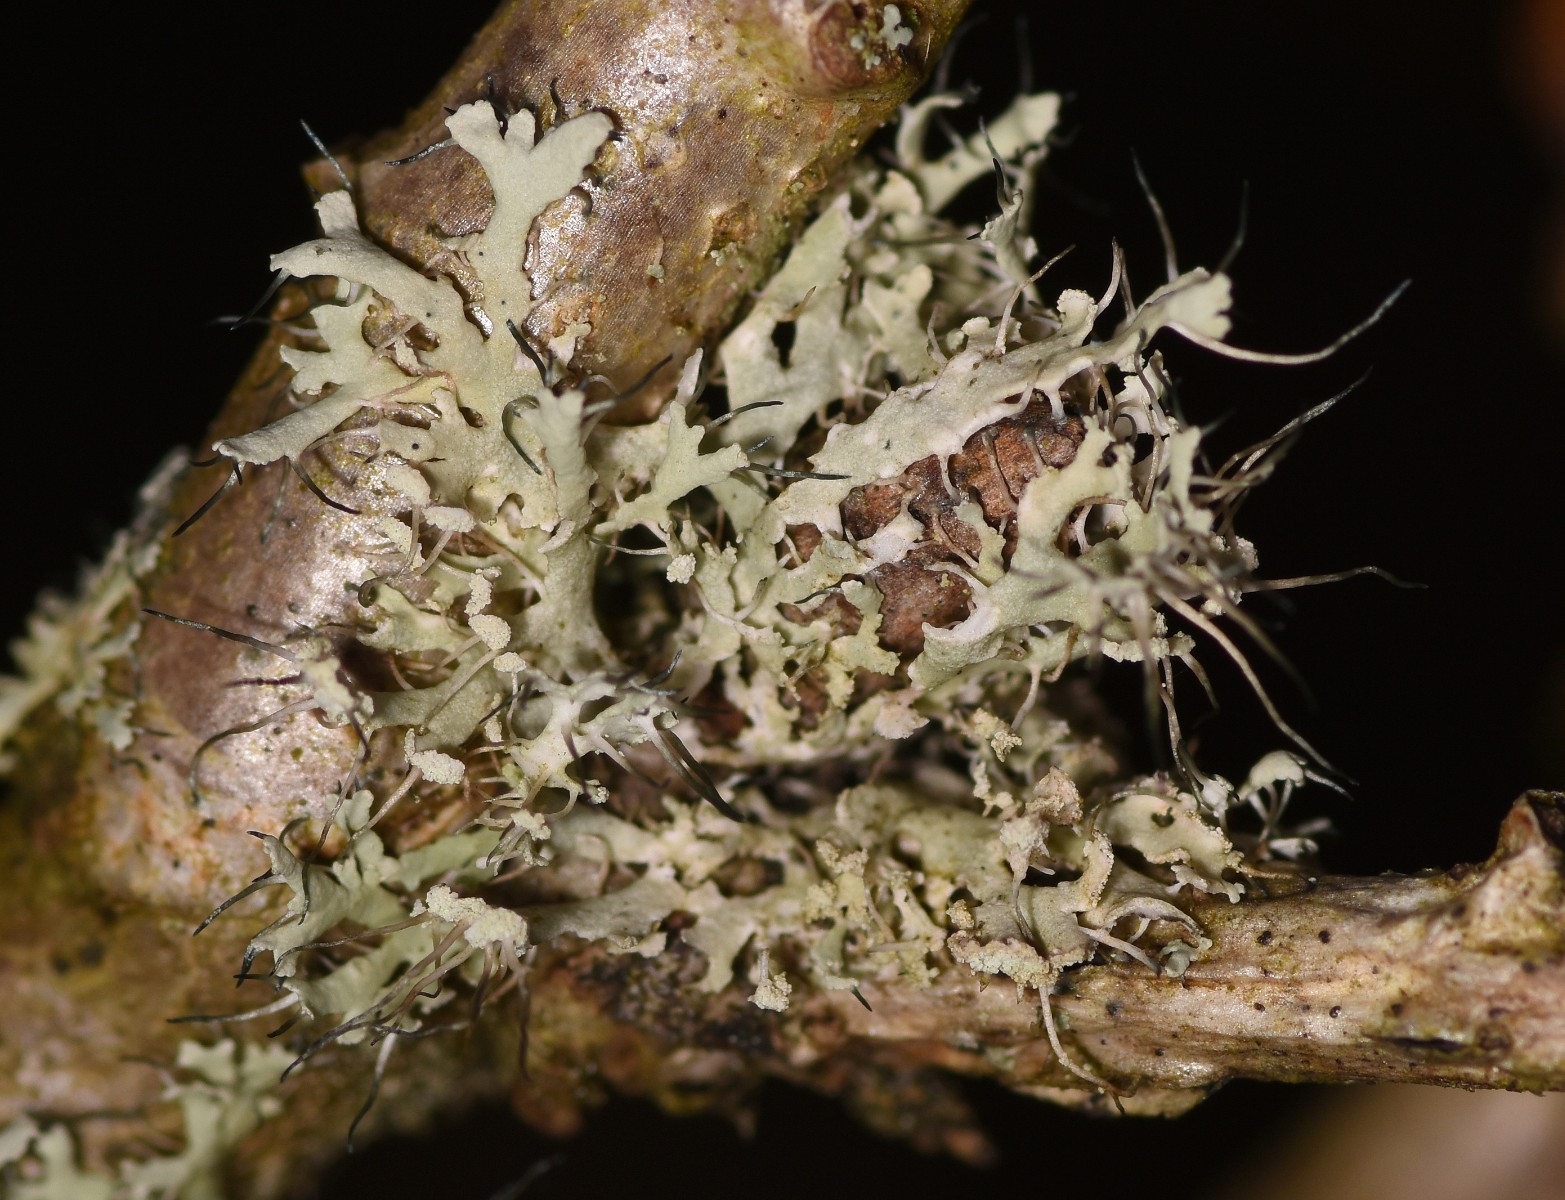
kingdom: Fungi
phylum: Ascomycota
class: Lecanoromycetes
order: Caliciales
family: Physciaceae
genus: Physcia
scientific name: Physcia tenella
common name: spæd rosetlav
